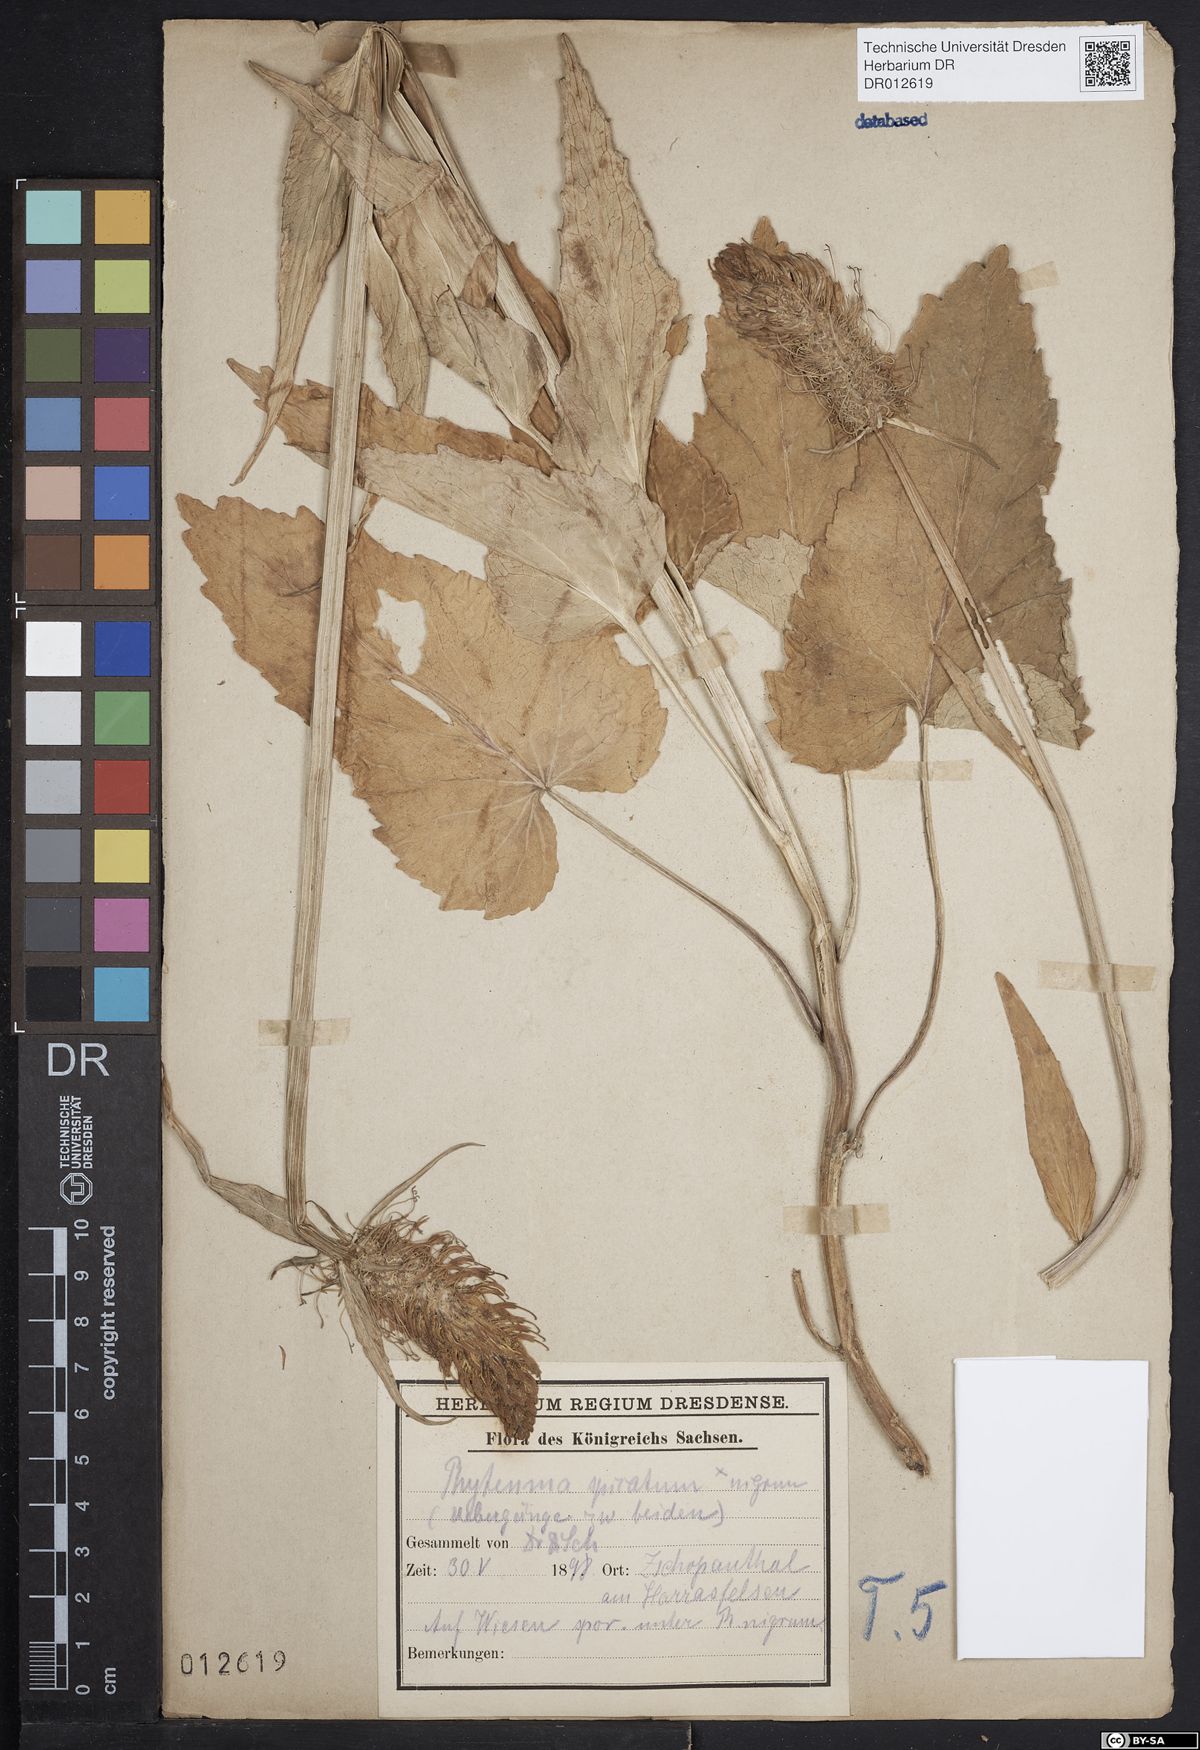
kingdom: Plantae
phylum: Tracheophyta
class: Magnoliopsida
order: Asterales
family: Campanulaceae
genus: Phyteuma
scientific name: Phyteuma adulterinum
